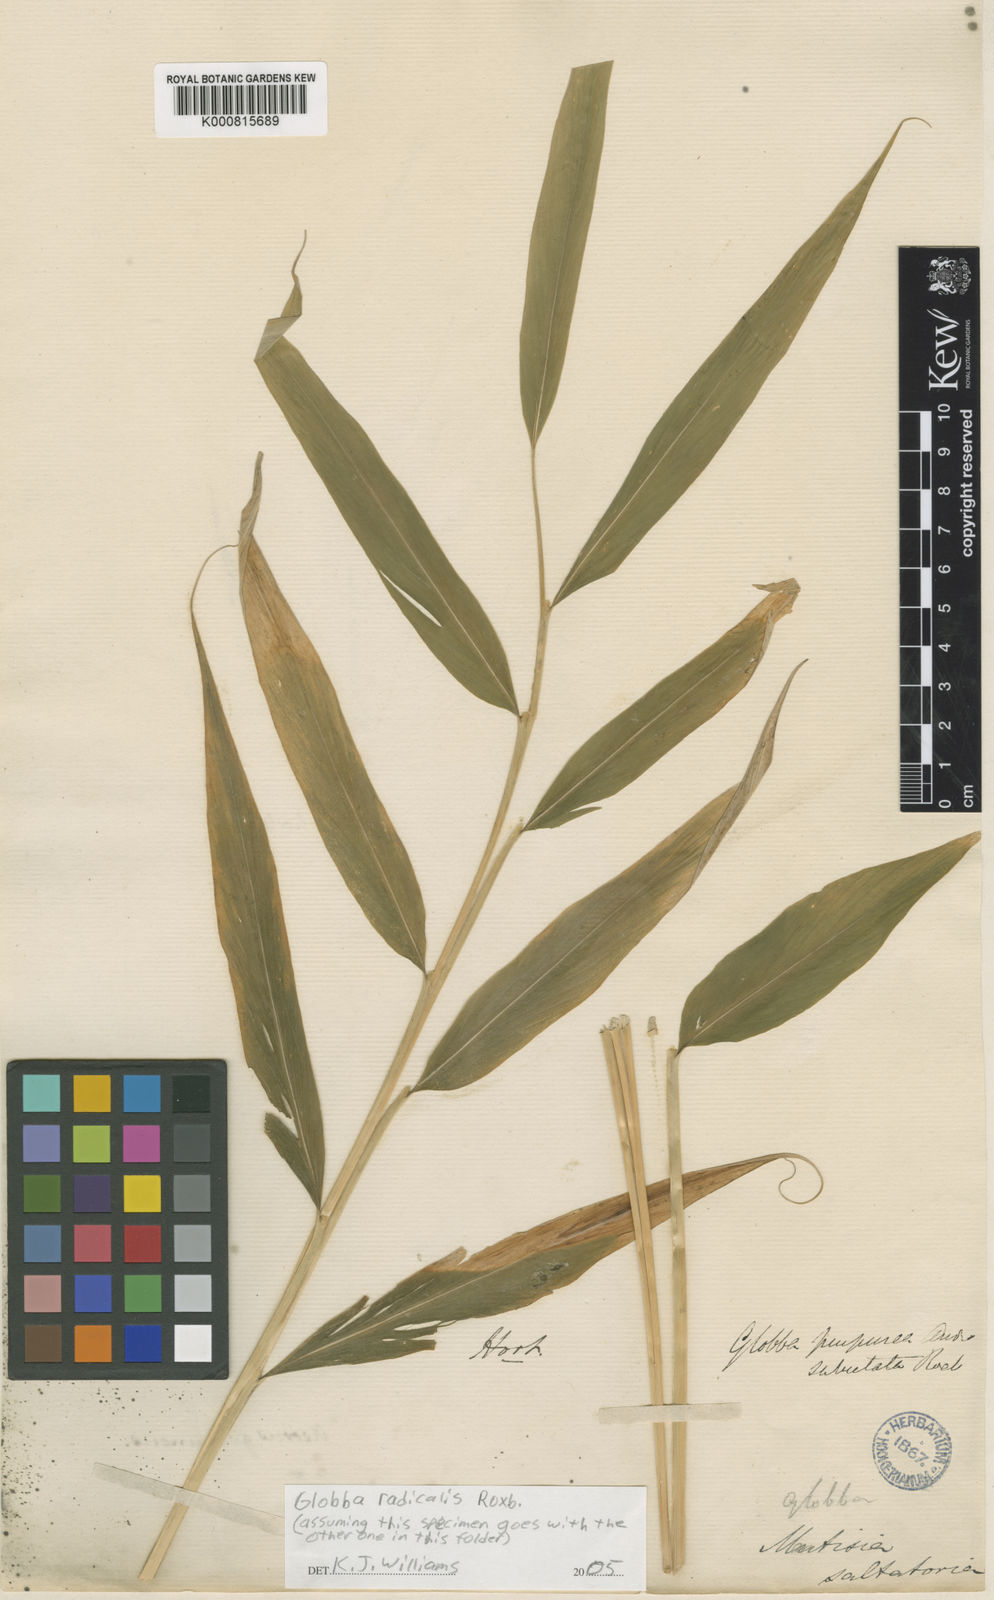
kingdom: Plantae
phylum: Tracheophyta
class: Liliopsida
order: Zingiberales
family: Zingiberaceae
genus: Globba
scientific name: Globba radicalis
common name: Dancing girl
